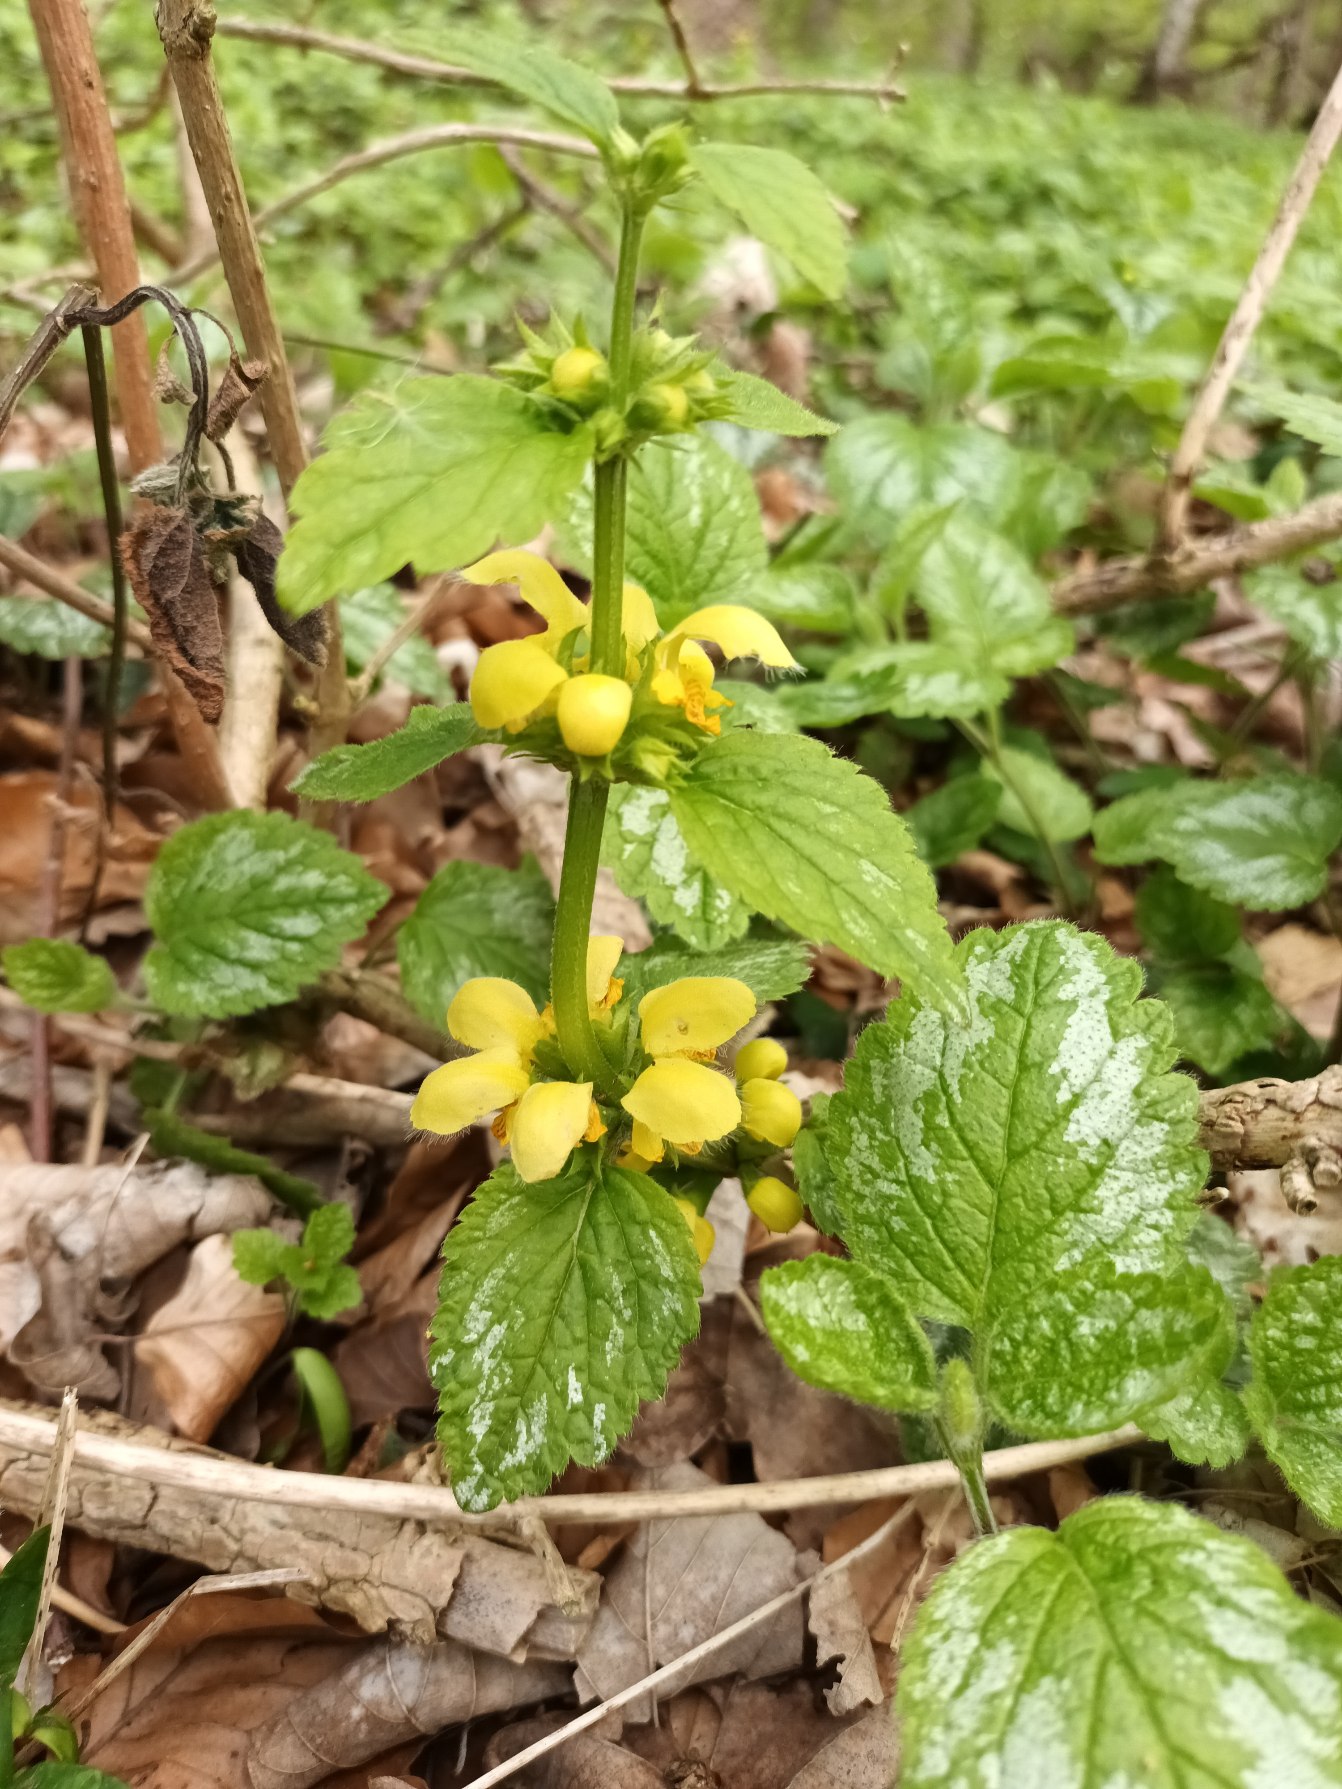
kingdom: Plantae
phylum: Tracheophyta
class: Magnoliopsida
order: Lamiales
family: Lamiaceae
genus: Lamium
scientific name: Lamium galeobdolon
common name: Have-guldnælde
